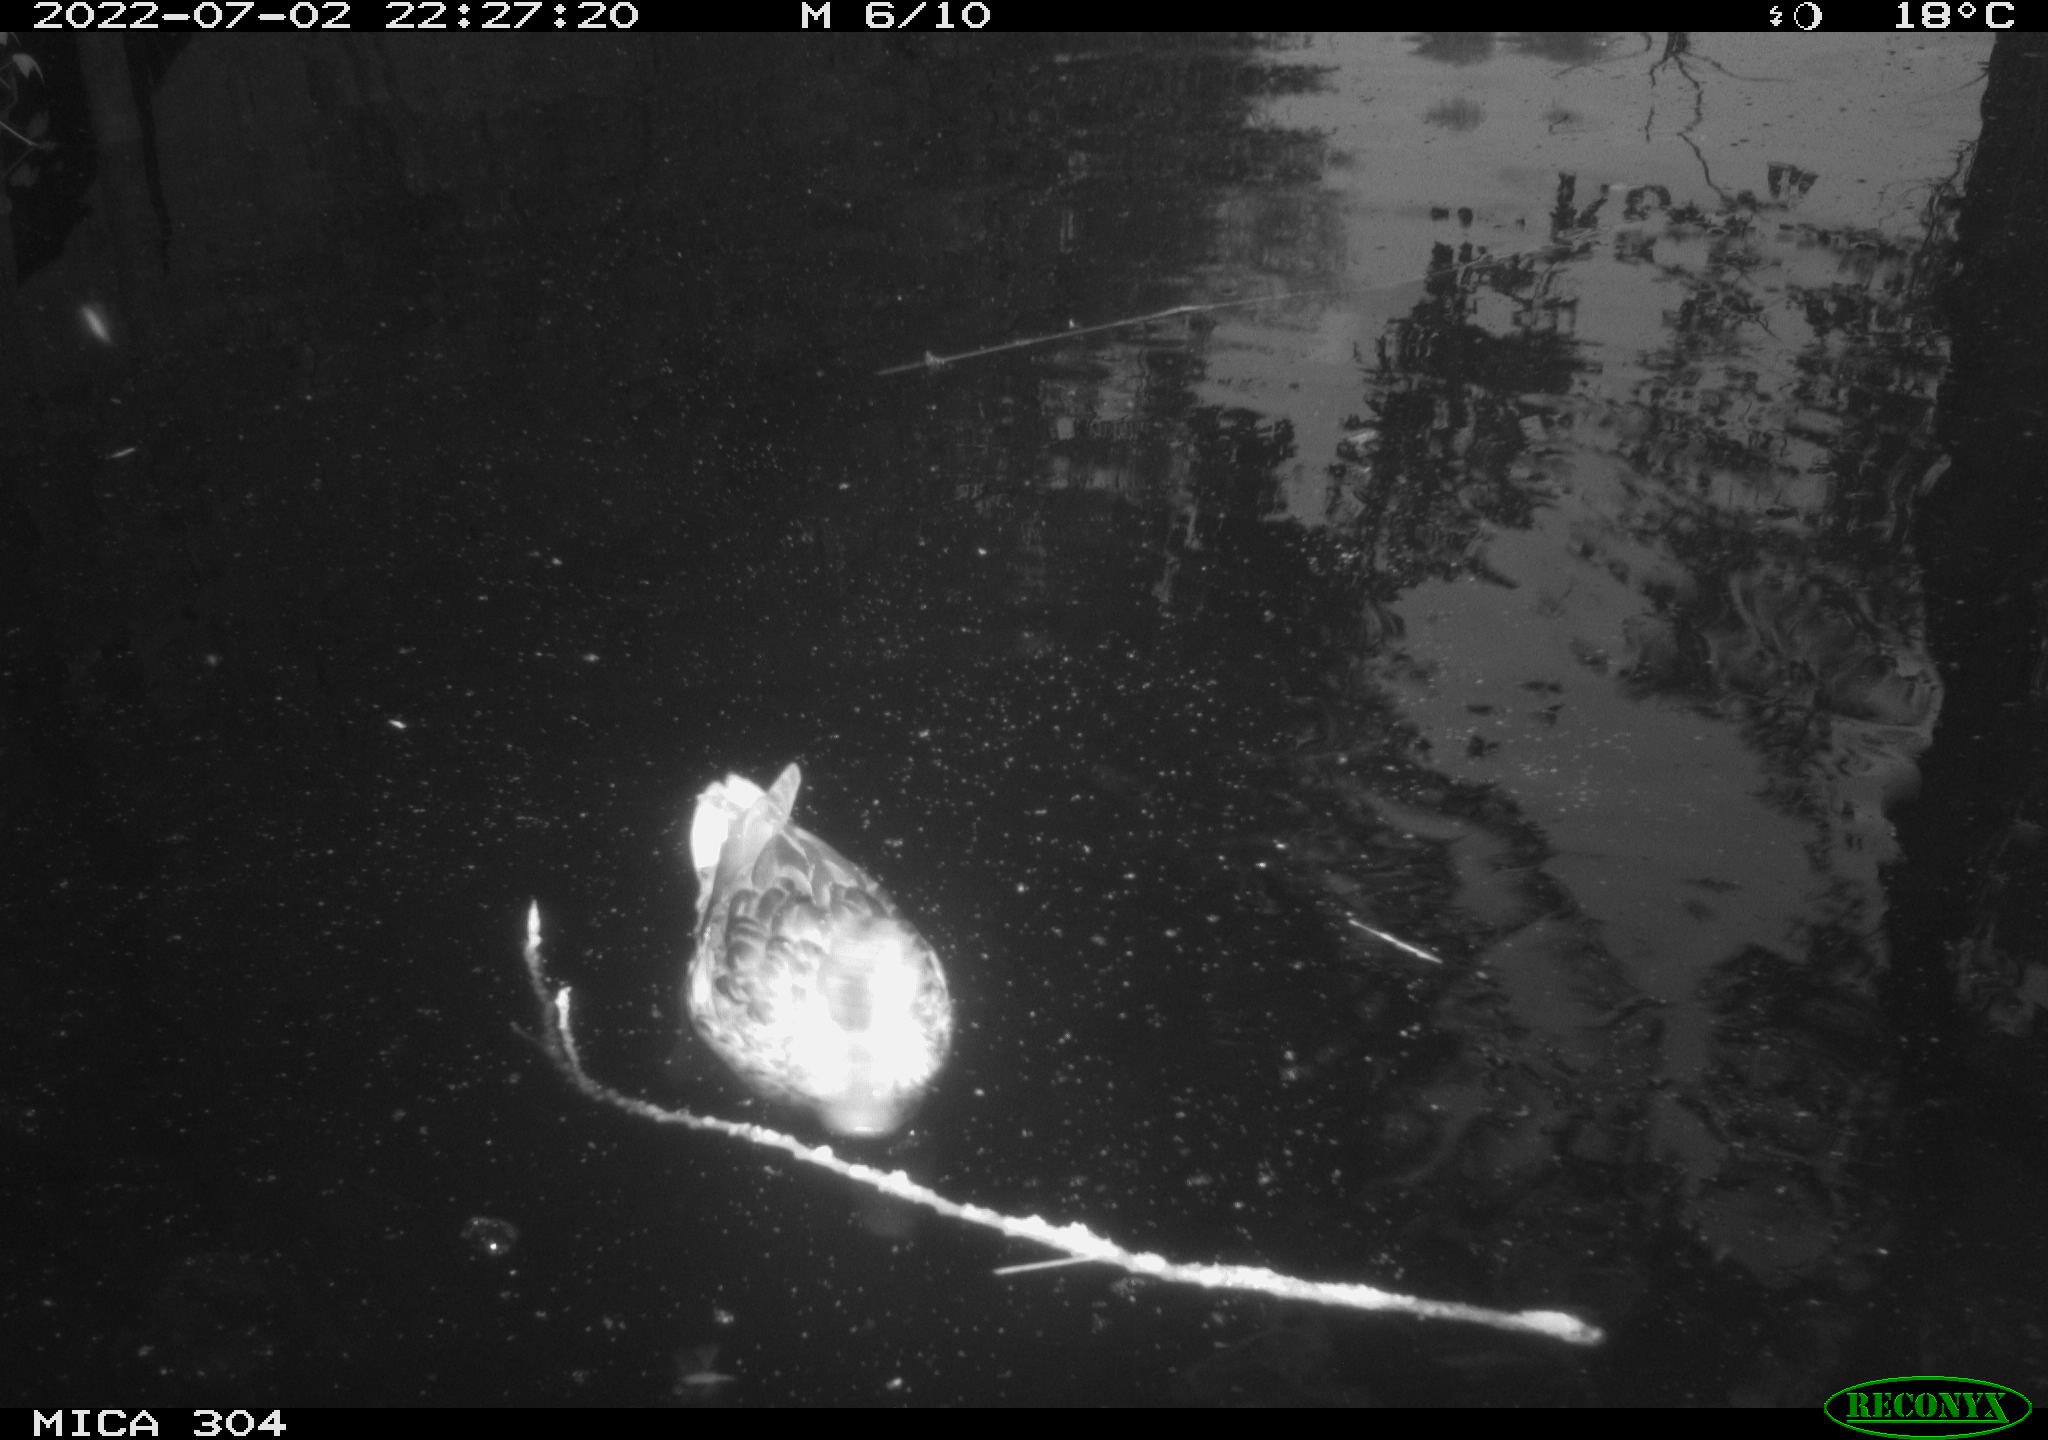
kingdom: Animalia
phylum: Chordata
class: Aves
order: Anseriformes
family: Anatidae
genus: Anas
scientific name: Anas platyrhynchos
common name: Mallard
